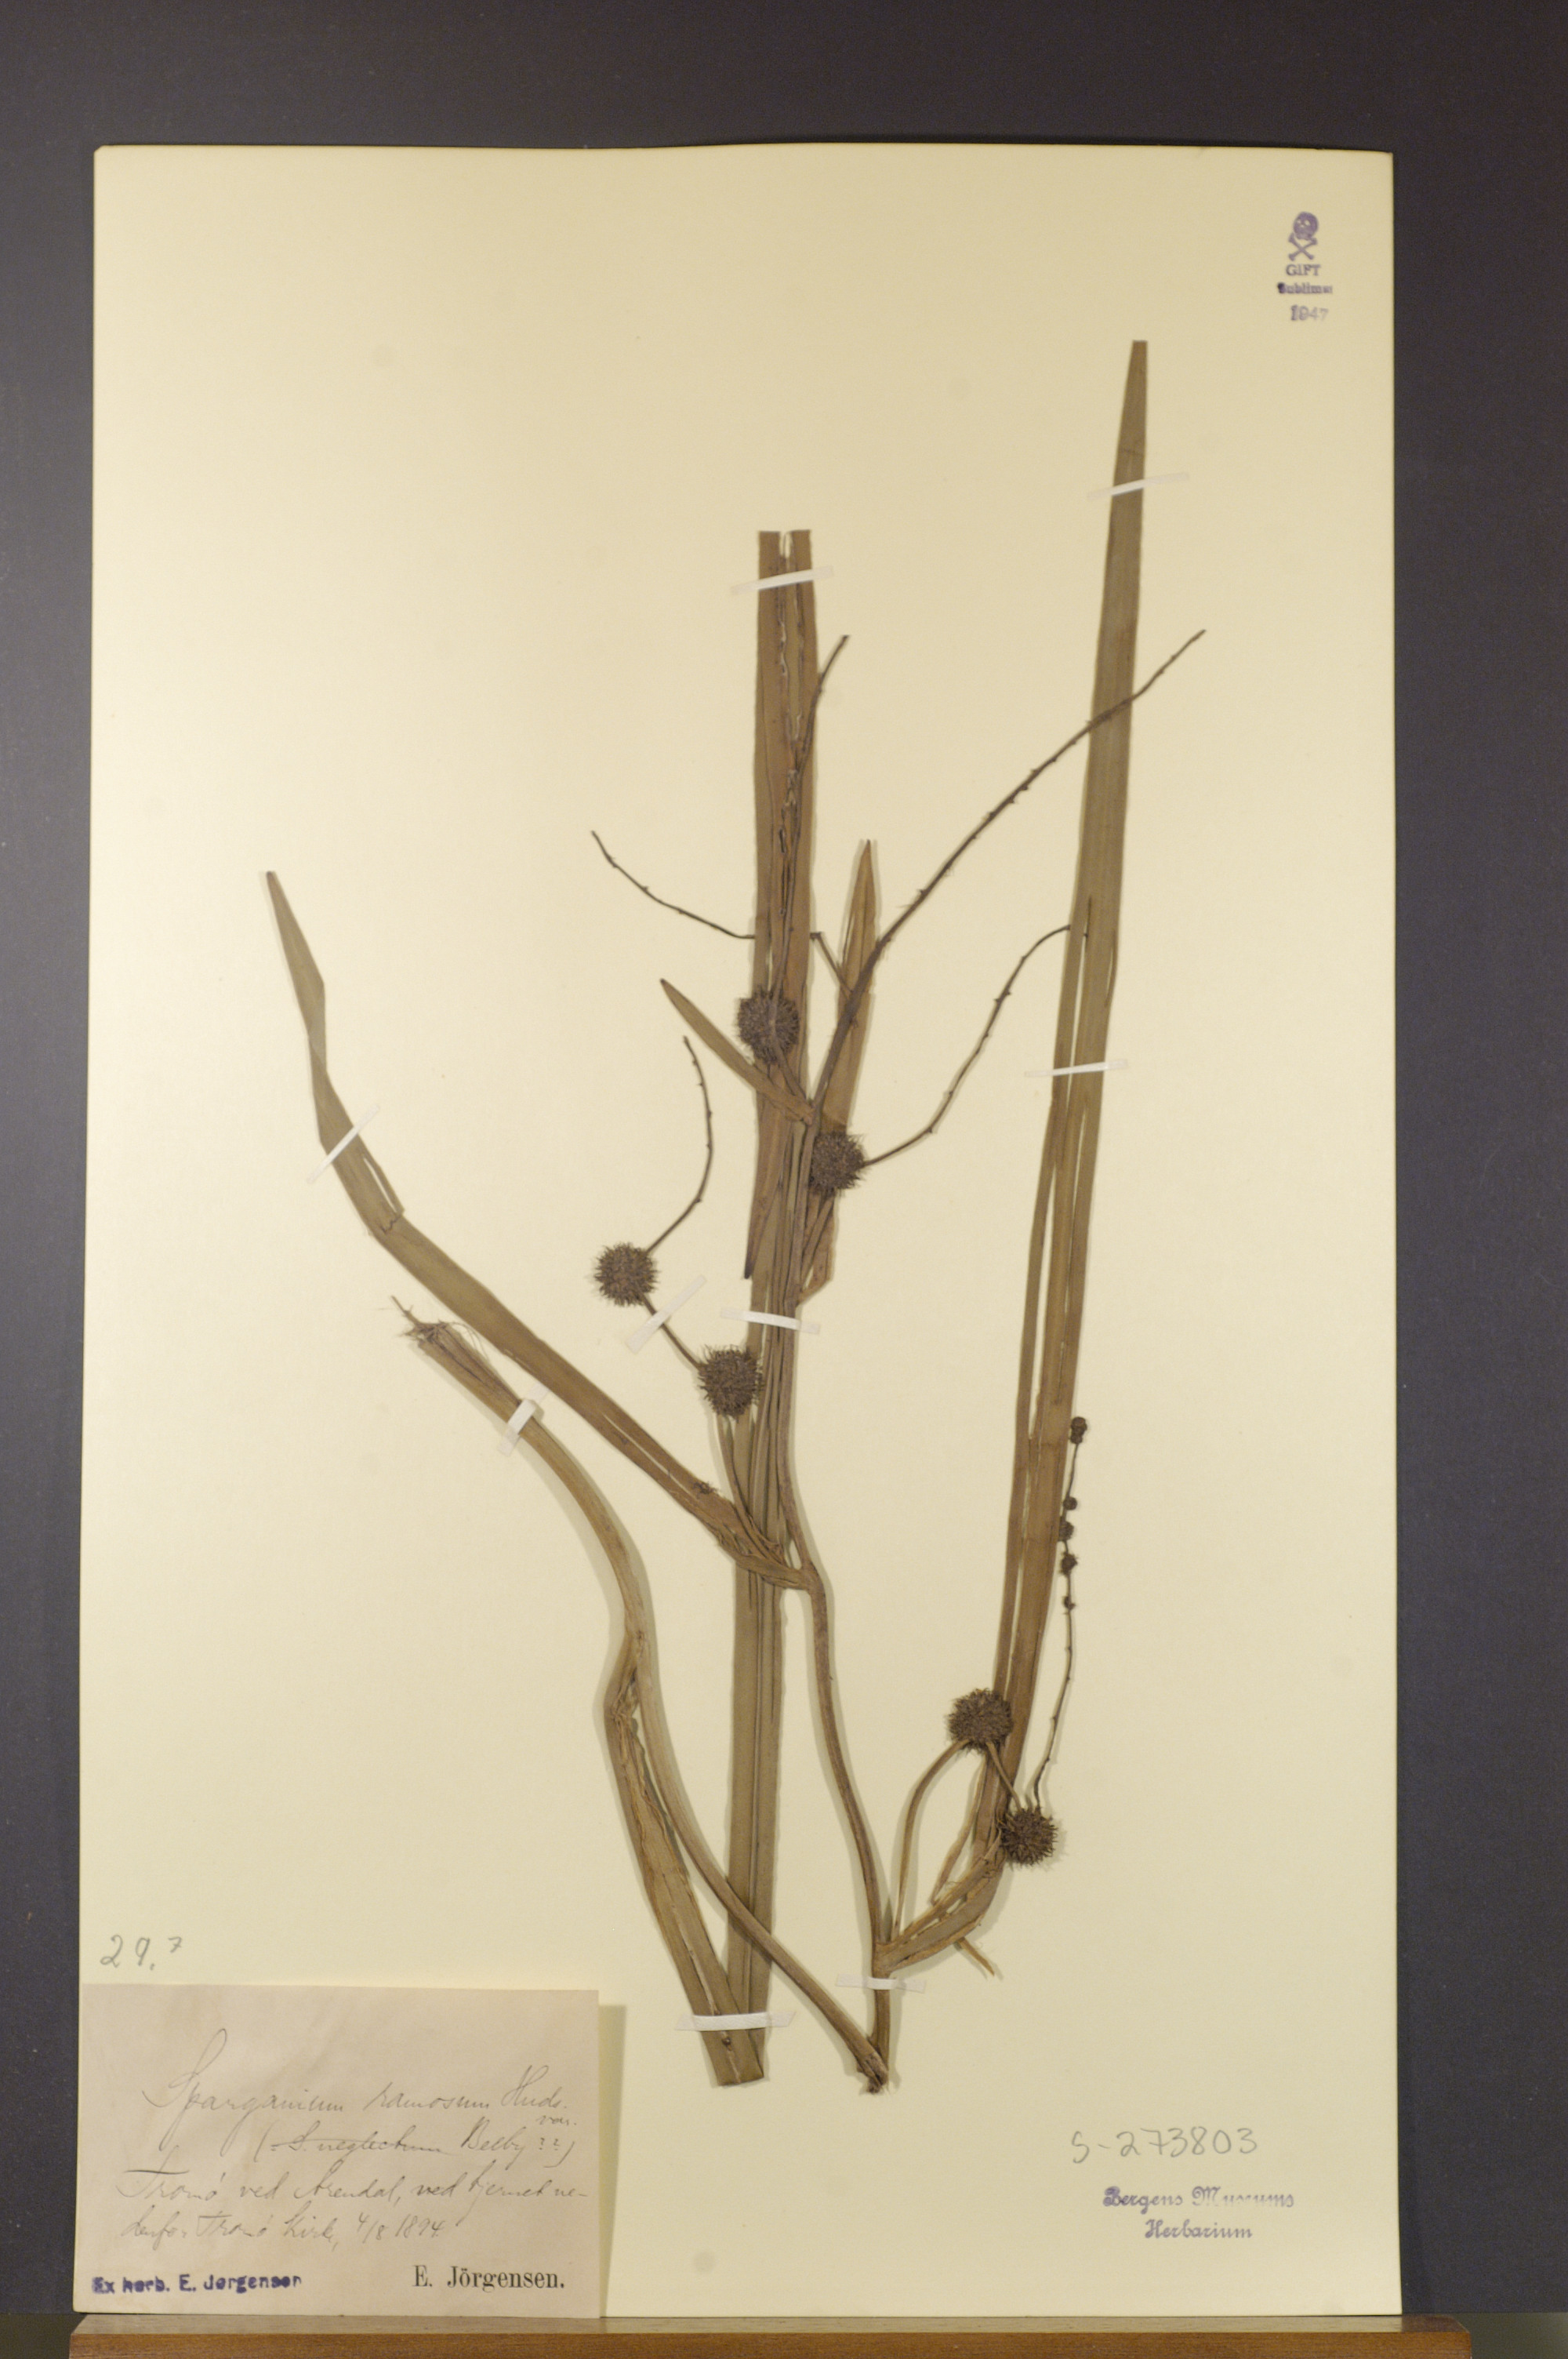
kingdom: Plantae
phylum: Tracheophyta
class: Liliopsida
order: Poales
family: Typhaceae
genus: Sparganium
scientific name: Sparganium erectum
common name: Branched bur-reed
